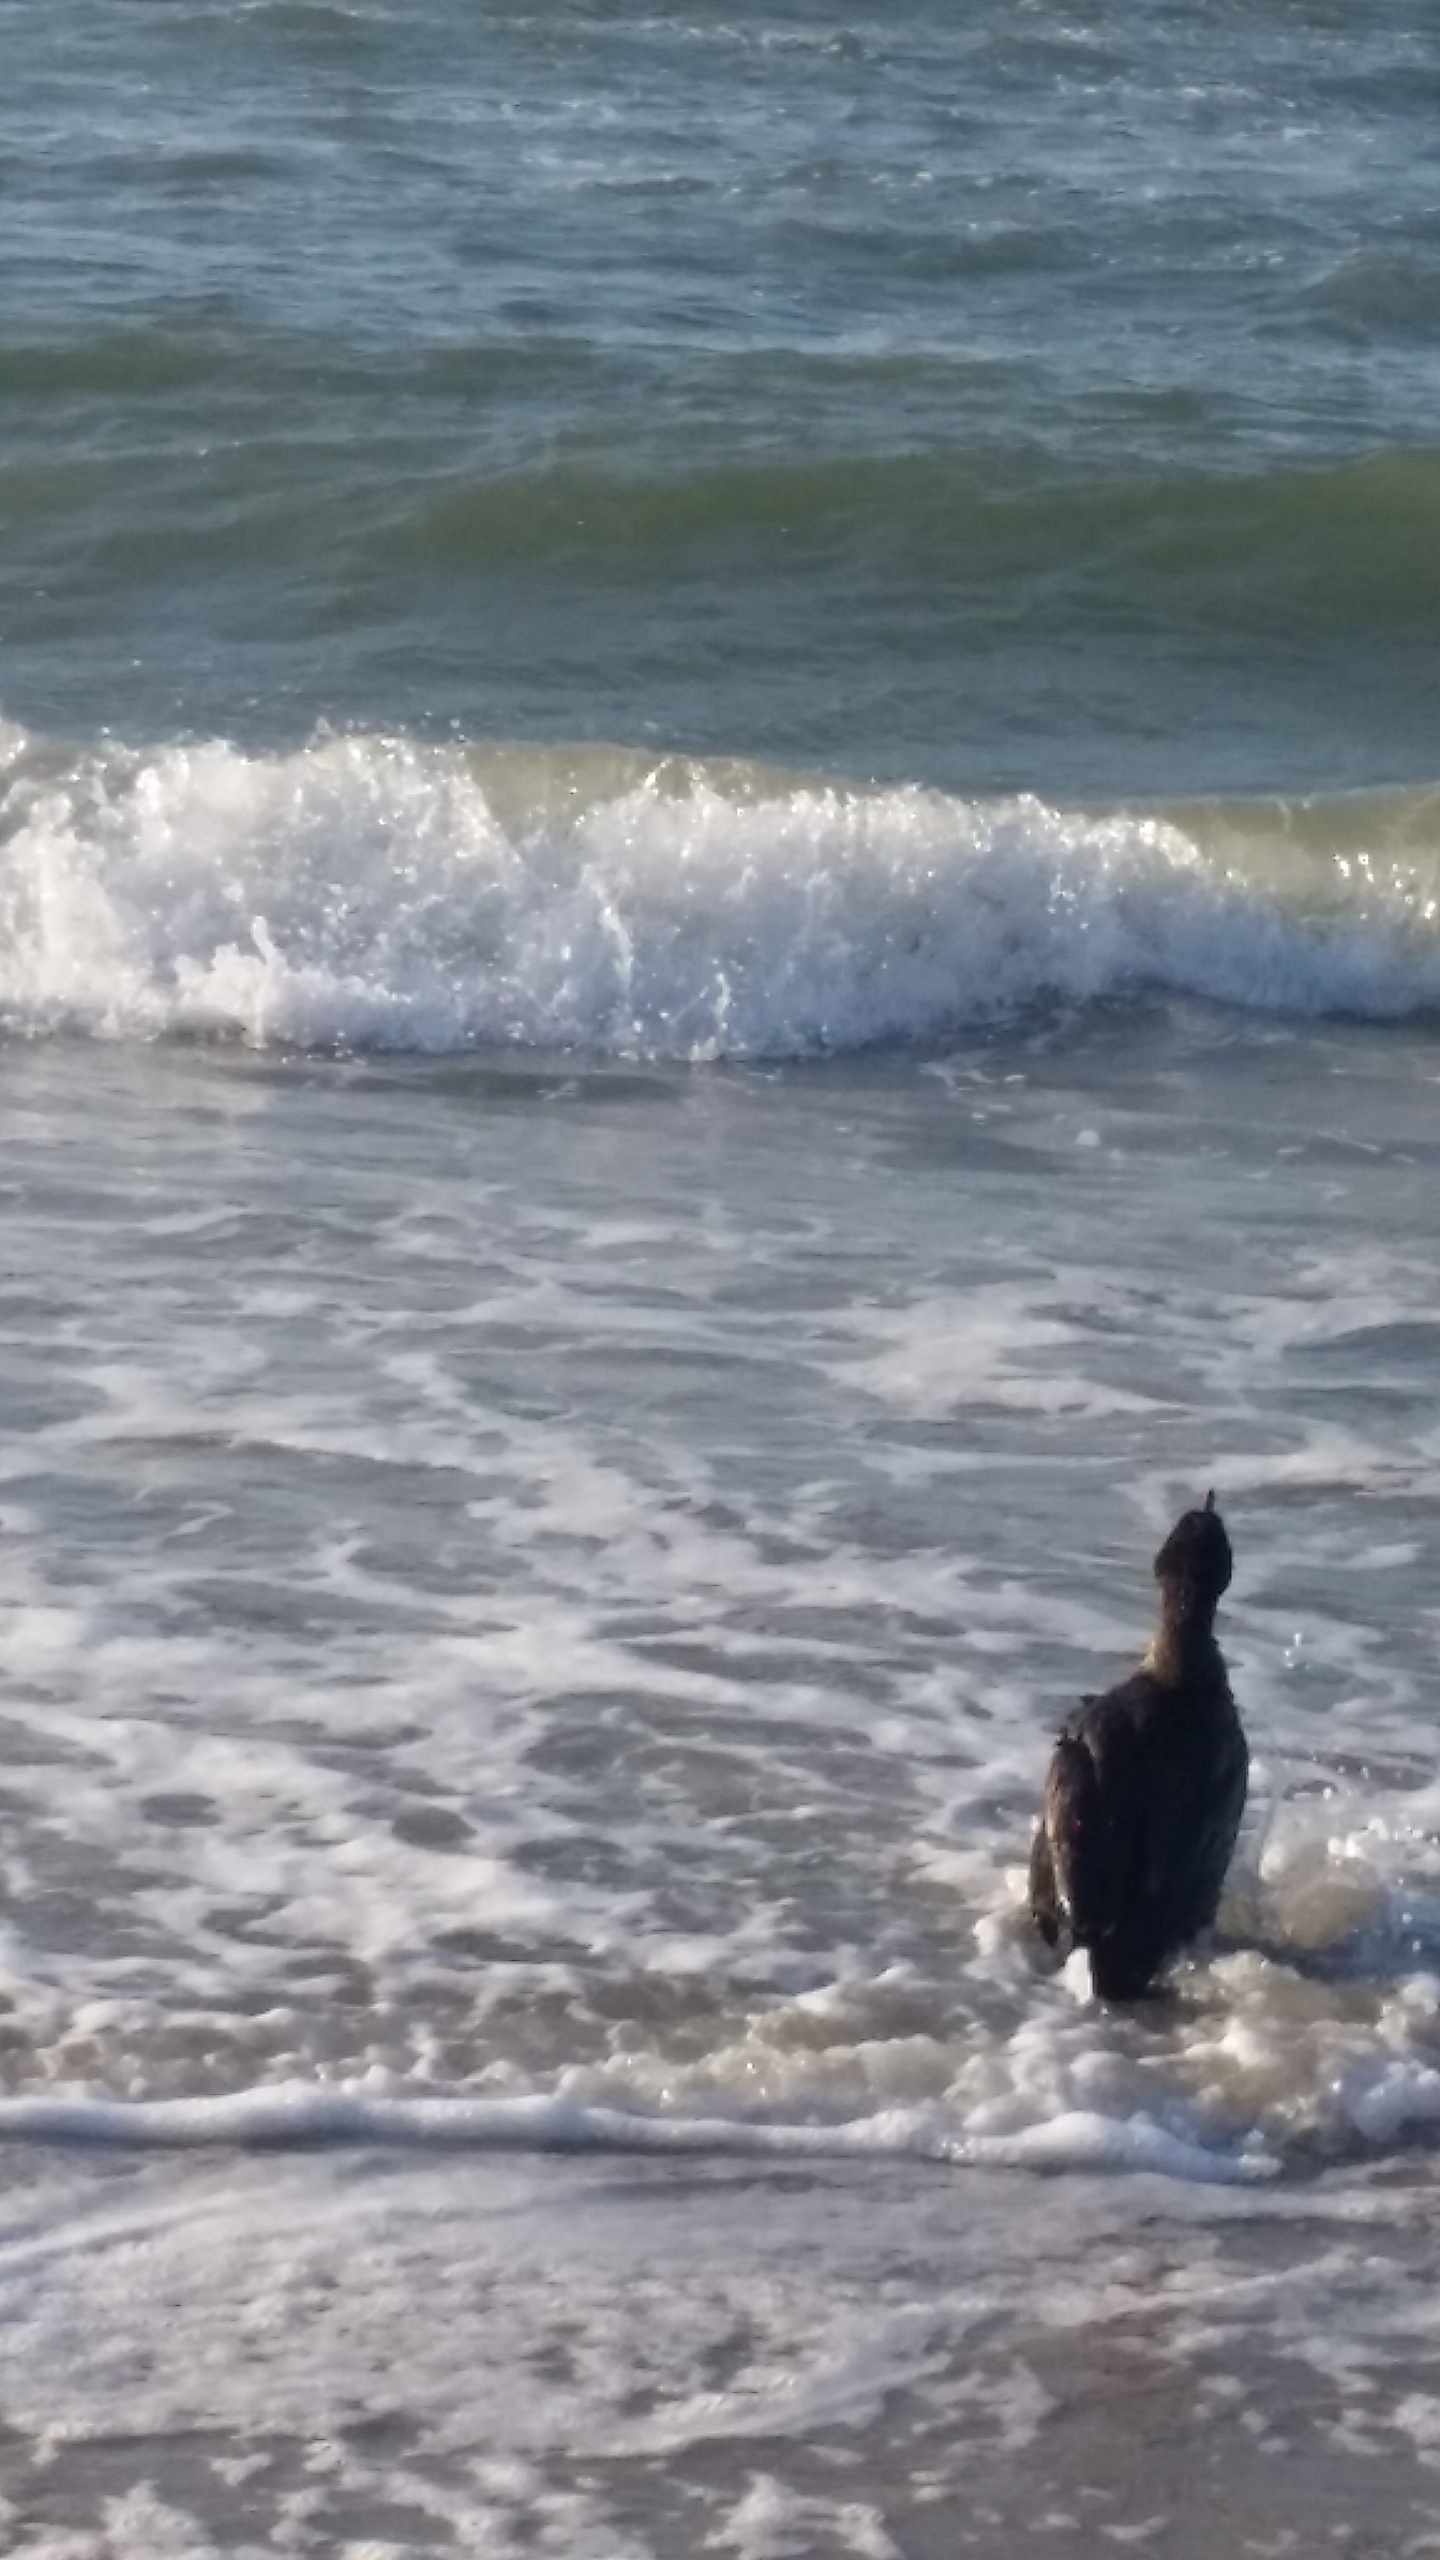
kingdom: Animalia
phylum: Chordata
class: Aves
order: Suliformes
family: Phalacrocoracidae
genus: Phalacrocorax
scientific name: Phalacrocorax carbo
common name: Skarv
